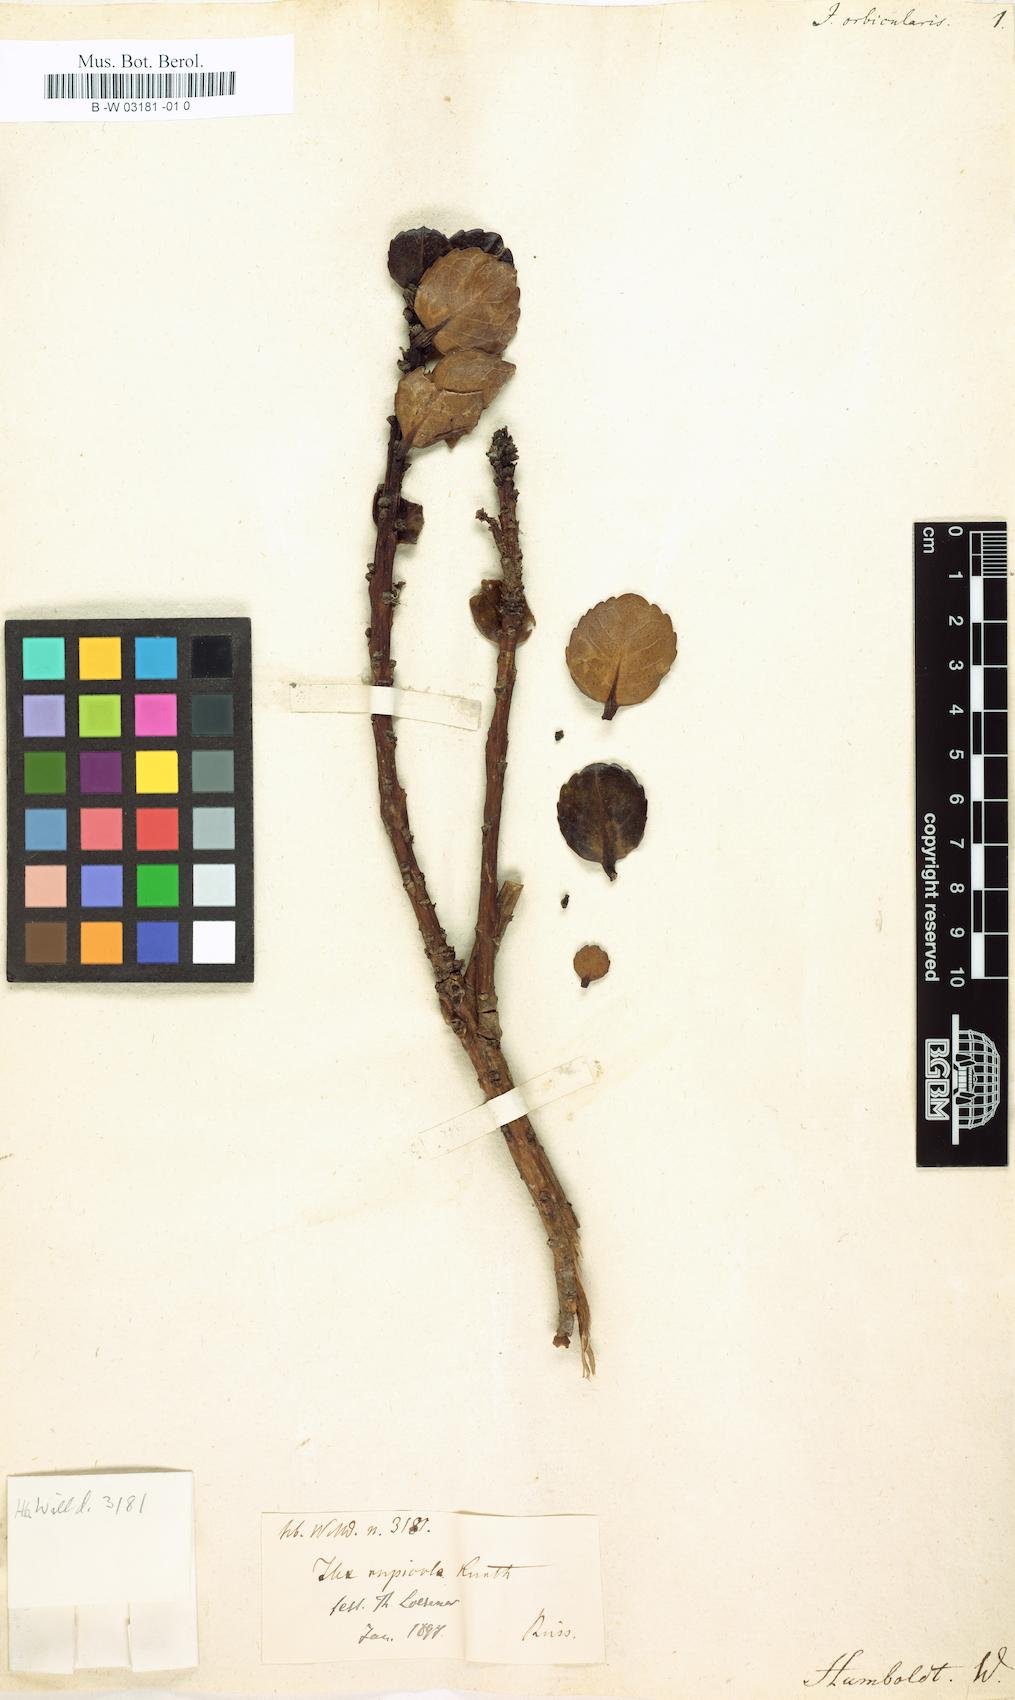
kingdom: Plantae
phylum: Tracheophyta
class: Magnoliopsida
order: Aquifoliales
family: Aquifoliaceae
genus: Ilex
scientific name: Ilex tahanensis
